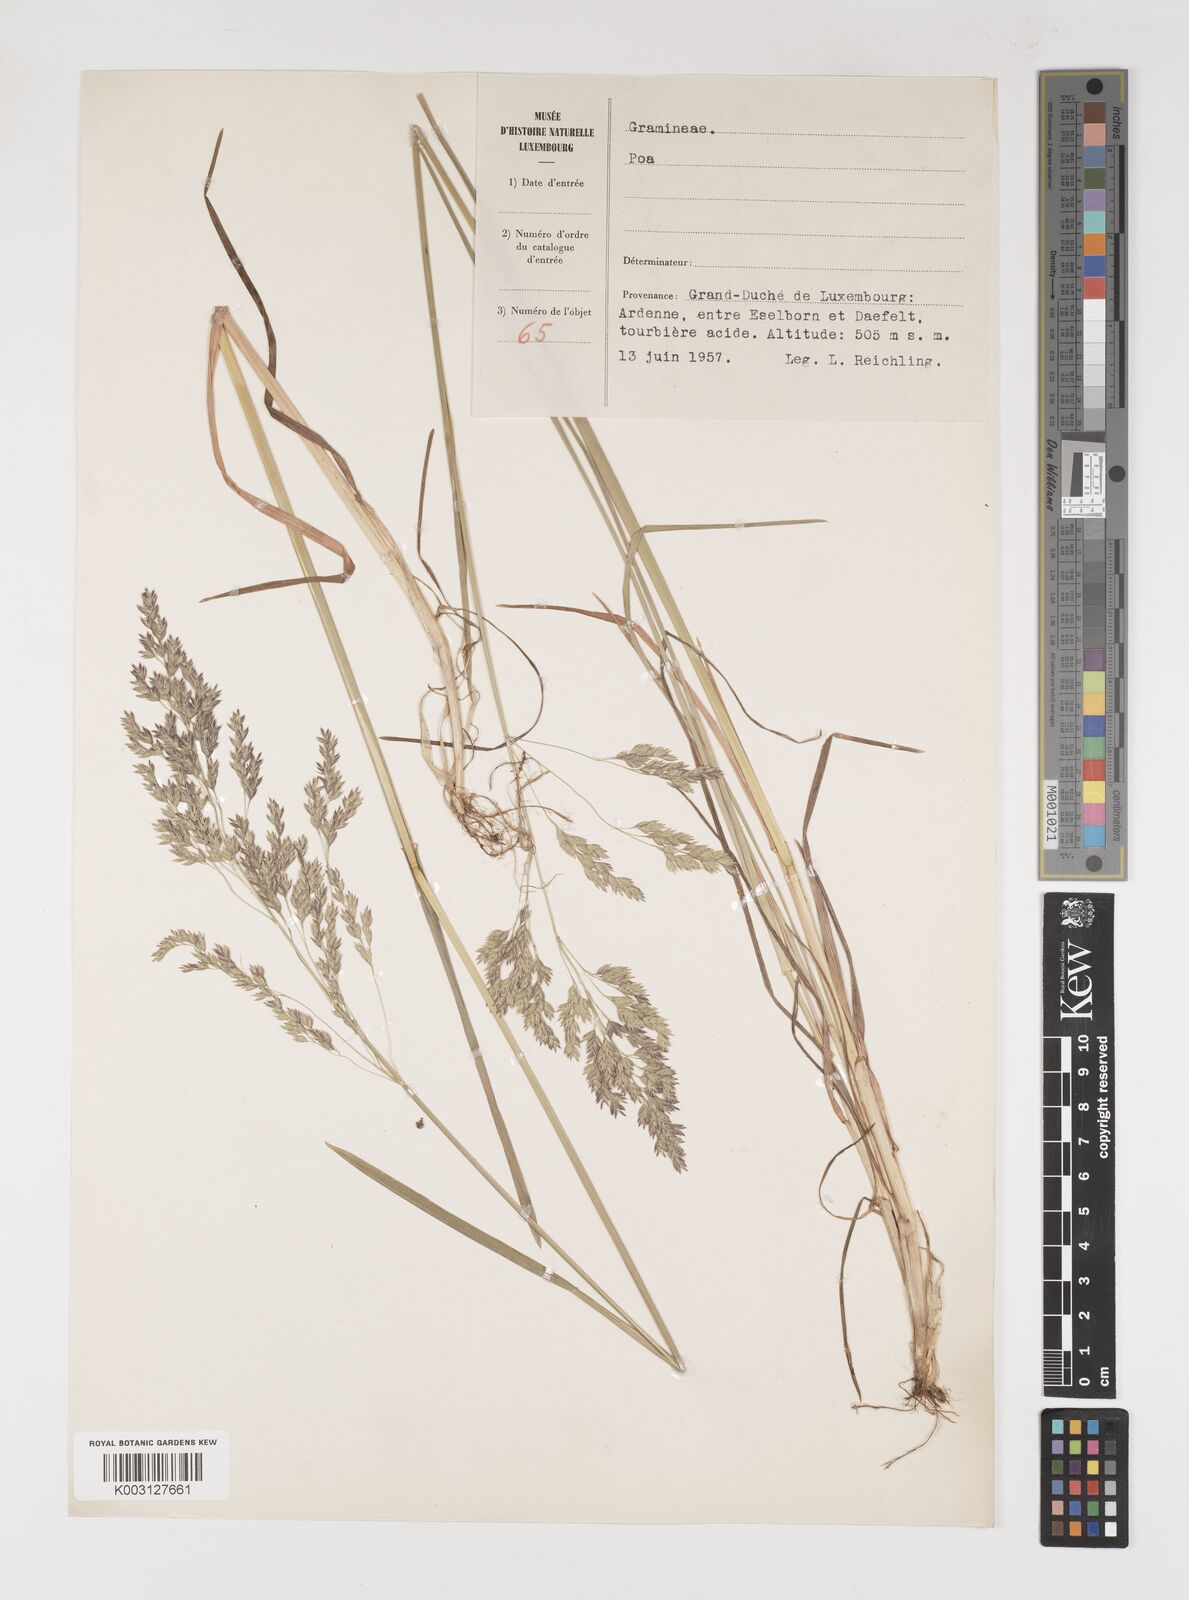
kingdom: Plantae
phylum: Tracheophyta
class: Liliopsida
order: Poales
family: Poaceae
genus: Poa
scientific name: Poa
